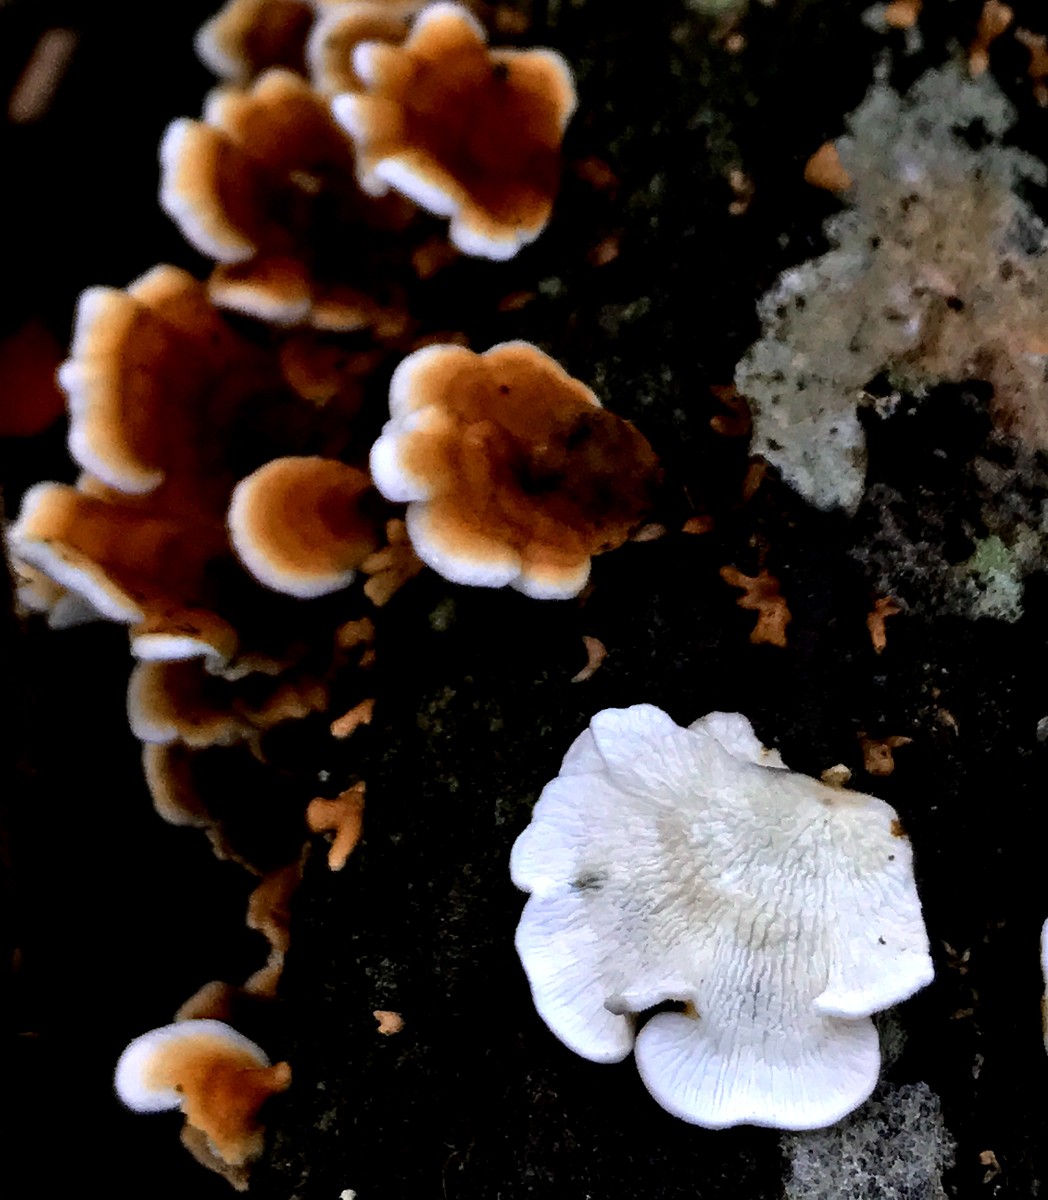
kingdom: Fungi
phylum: Basidiomycota
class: Agaricomycetes
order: Amylocorticiales
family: Amylocorticiaceae
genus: Plicaturopsis
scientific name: Plicaturopsis crispa
